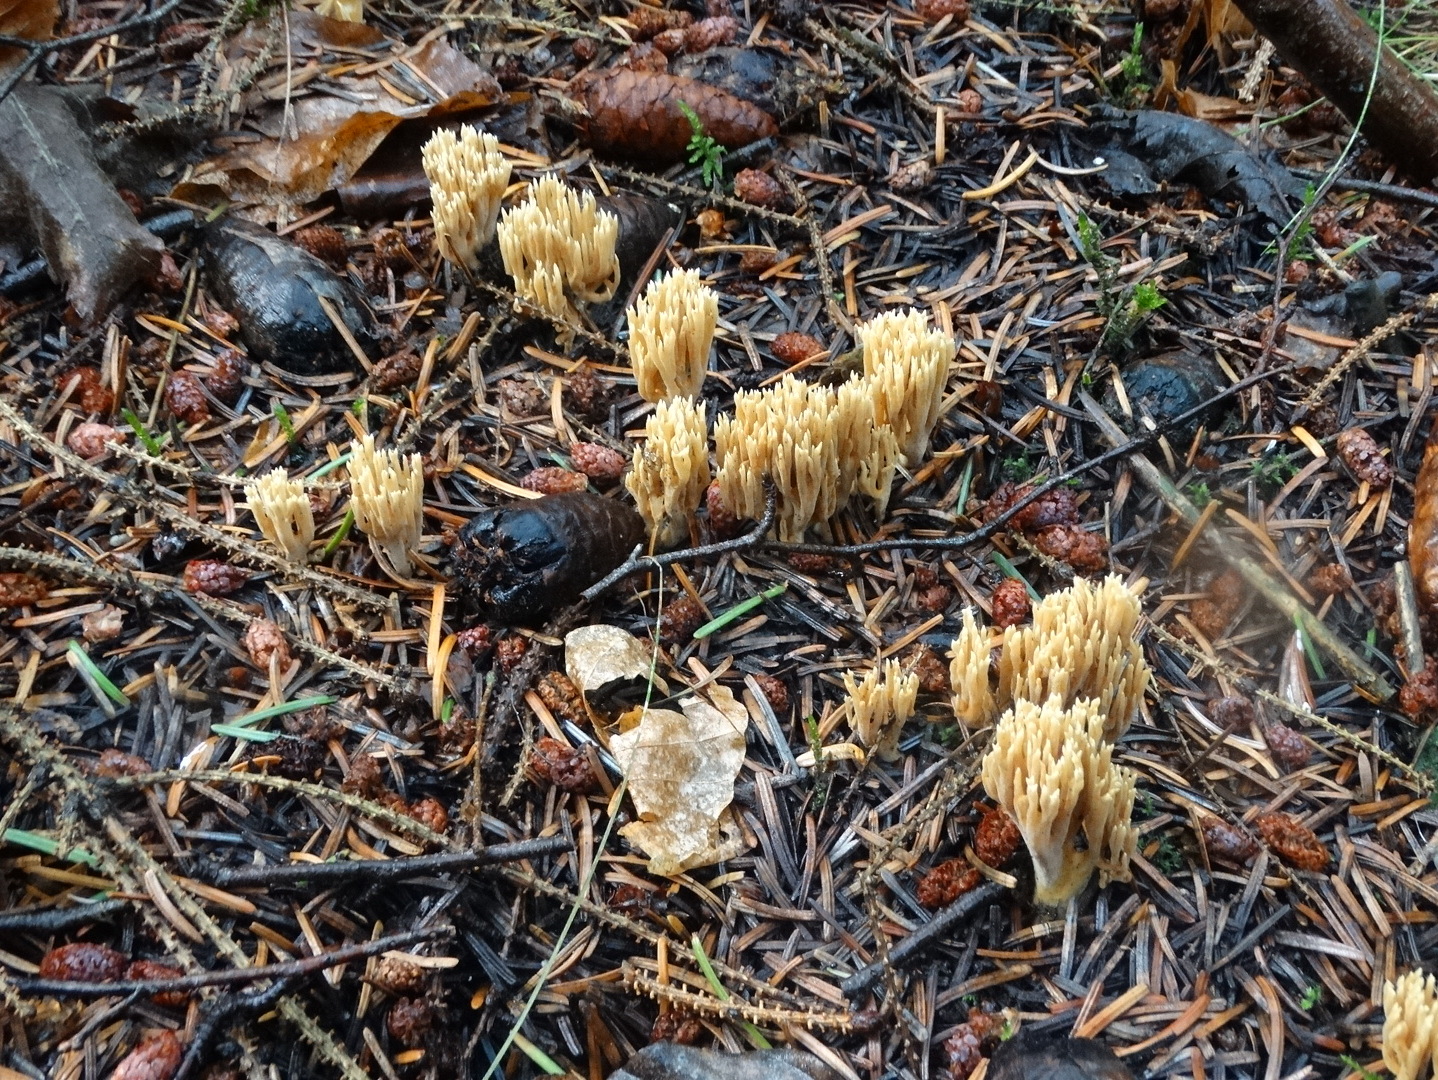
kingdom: Fungi
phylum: Basidiomycota
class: Agaricomycetes
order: Gomphales
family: Gomphaceae
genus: Phaeoclavulina
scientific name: Phaeoclavulina eumorpha
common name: gran-koralsvamp
